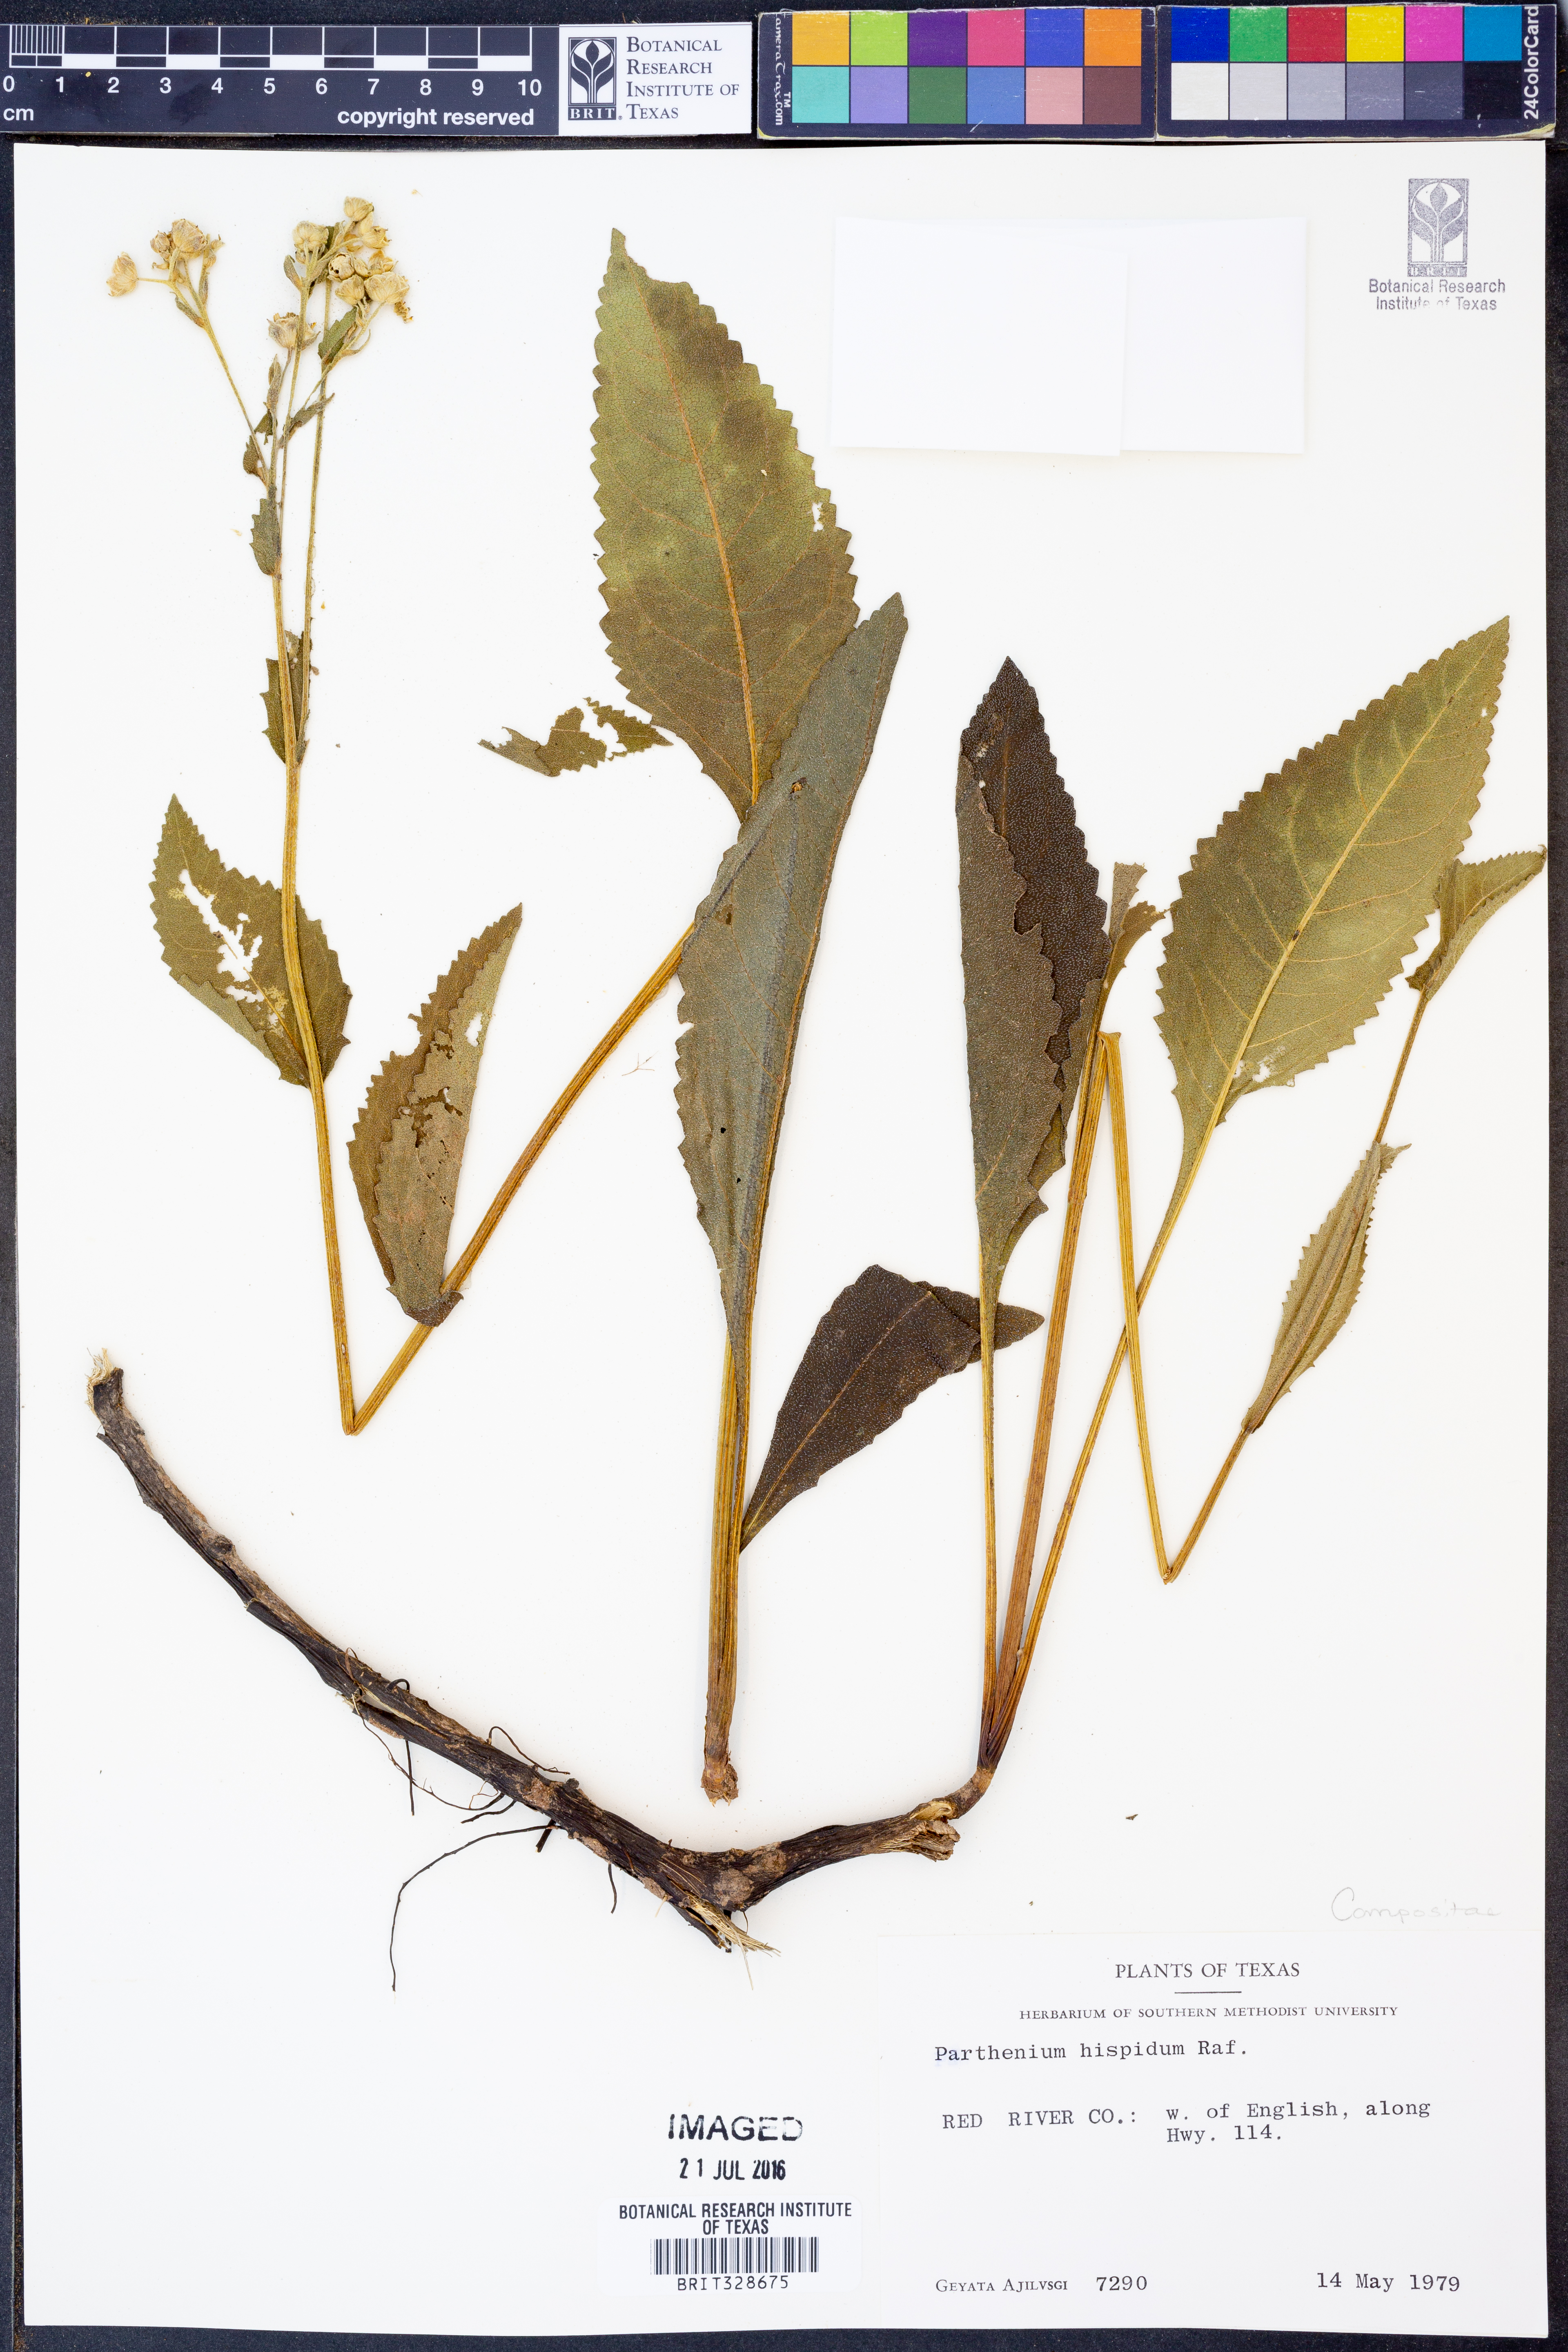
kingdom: Plantae
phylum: Tracheophyta
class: Magnoliopsida
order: Asterales
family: Asteraceae
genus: Parthenium
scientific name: Parthenium hispidum
